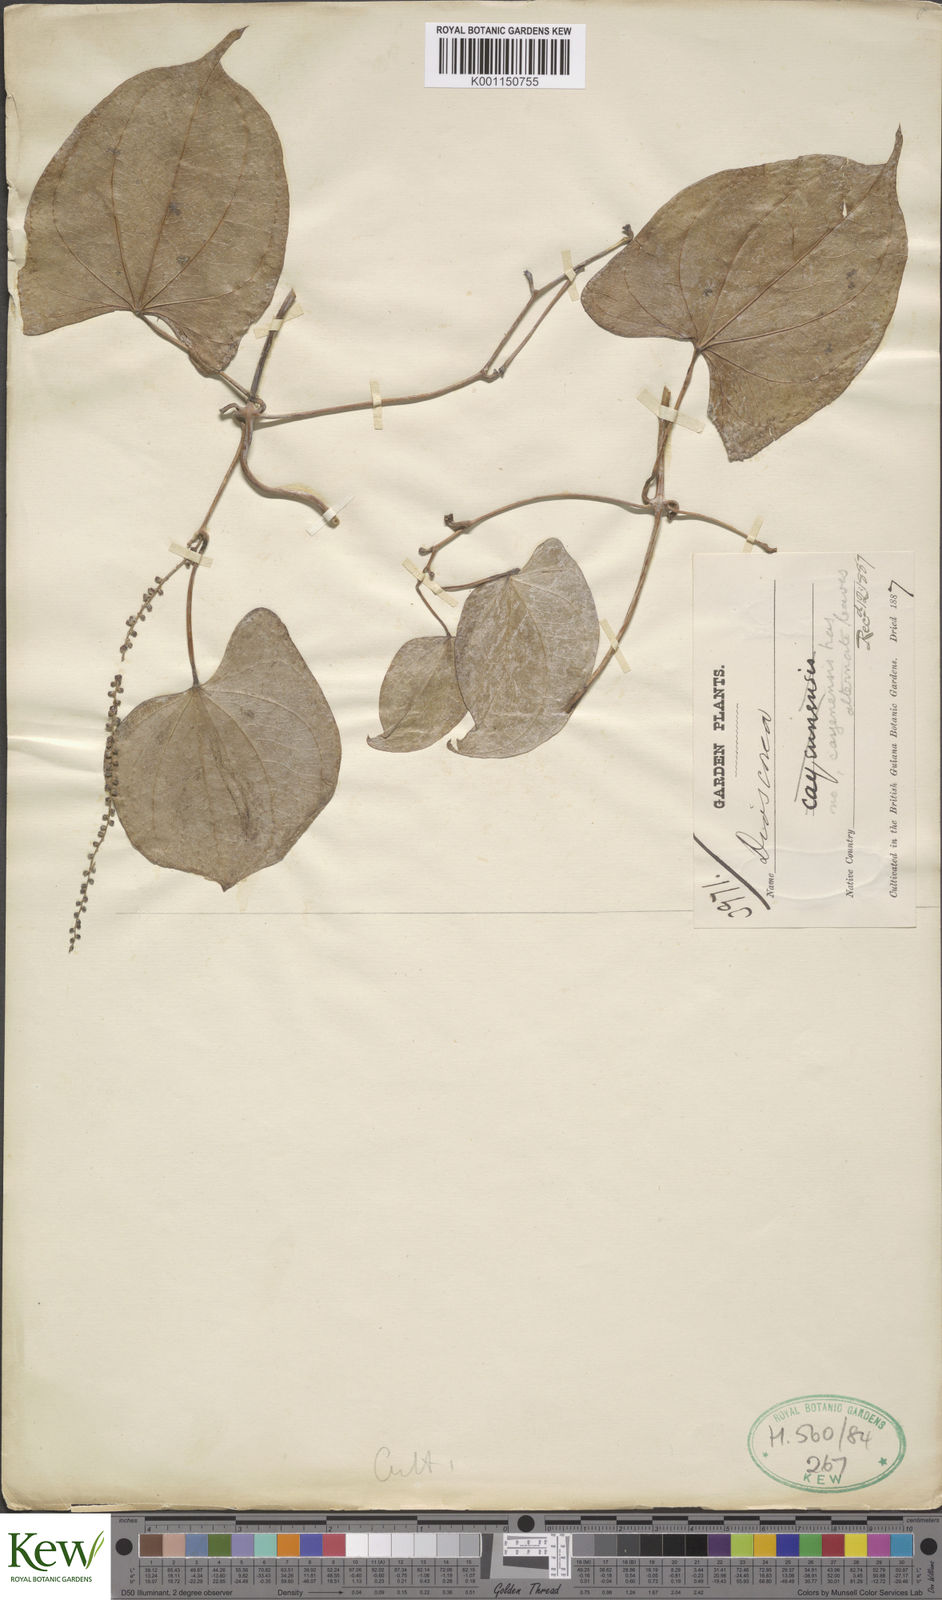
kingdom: Plantae
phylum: Tracheophyta
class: Liliopsida
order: Dioscoreales
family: Dioscoreaceae
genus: Dioscorea
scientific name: Dioscorea
